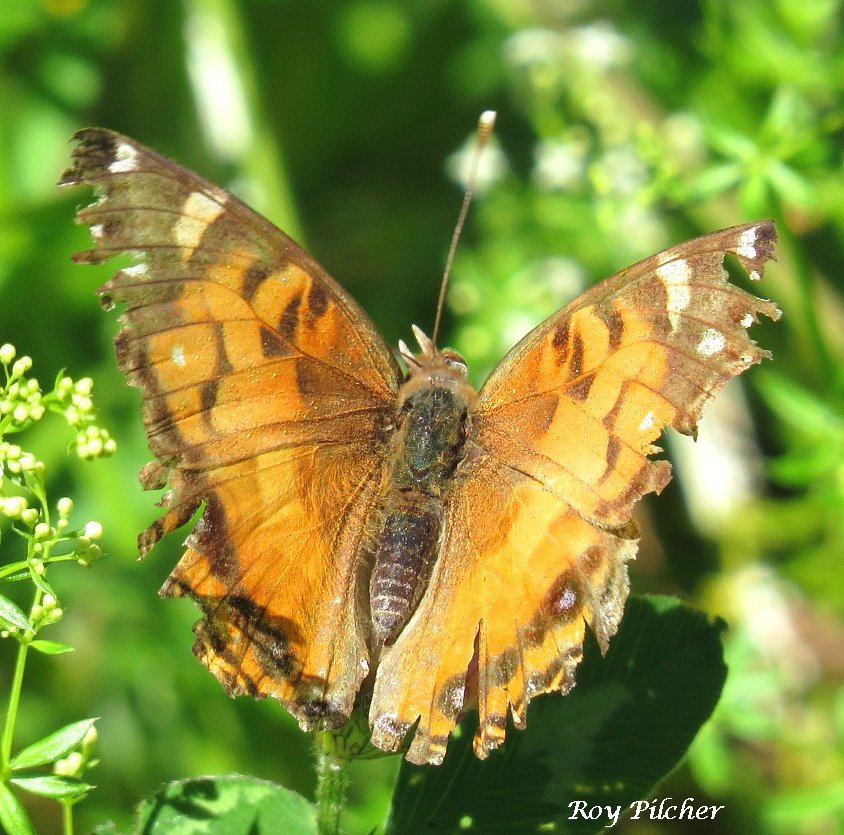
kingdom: Animalia
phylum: Arthropoda
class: Insecta
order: Lepidoptera
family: Nymphalidae
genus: Vanessa
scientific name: Vanessa virginiensis
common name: American Lady
